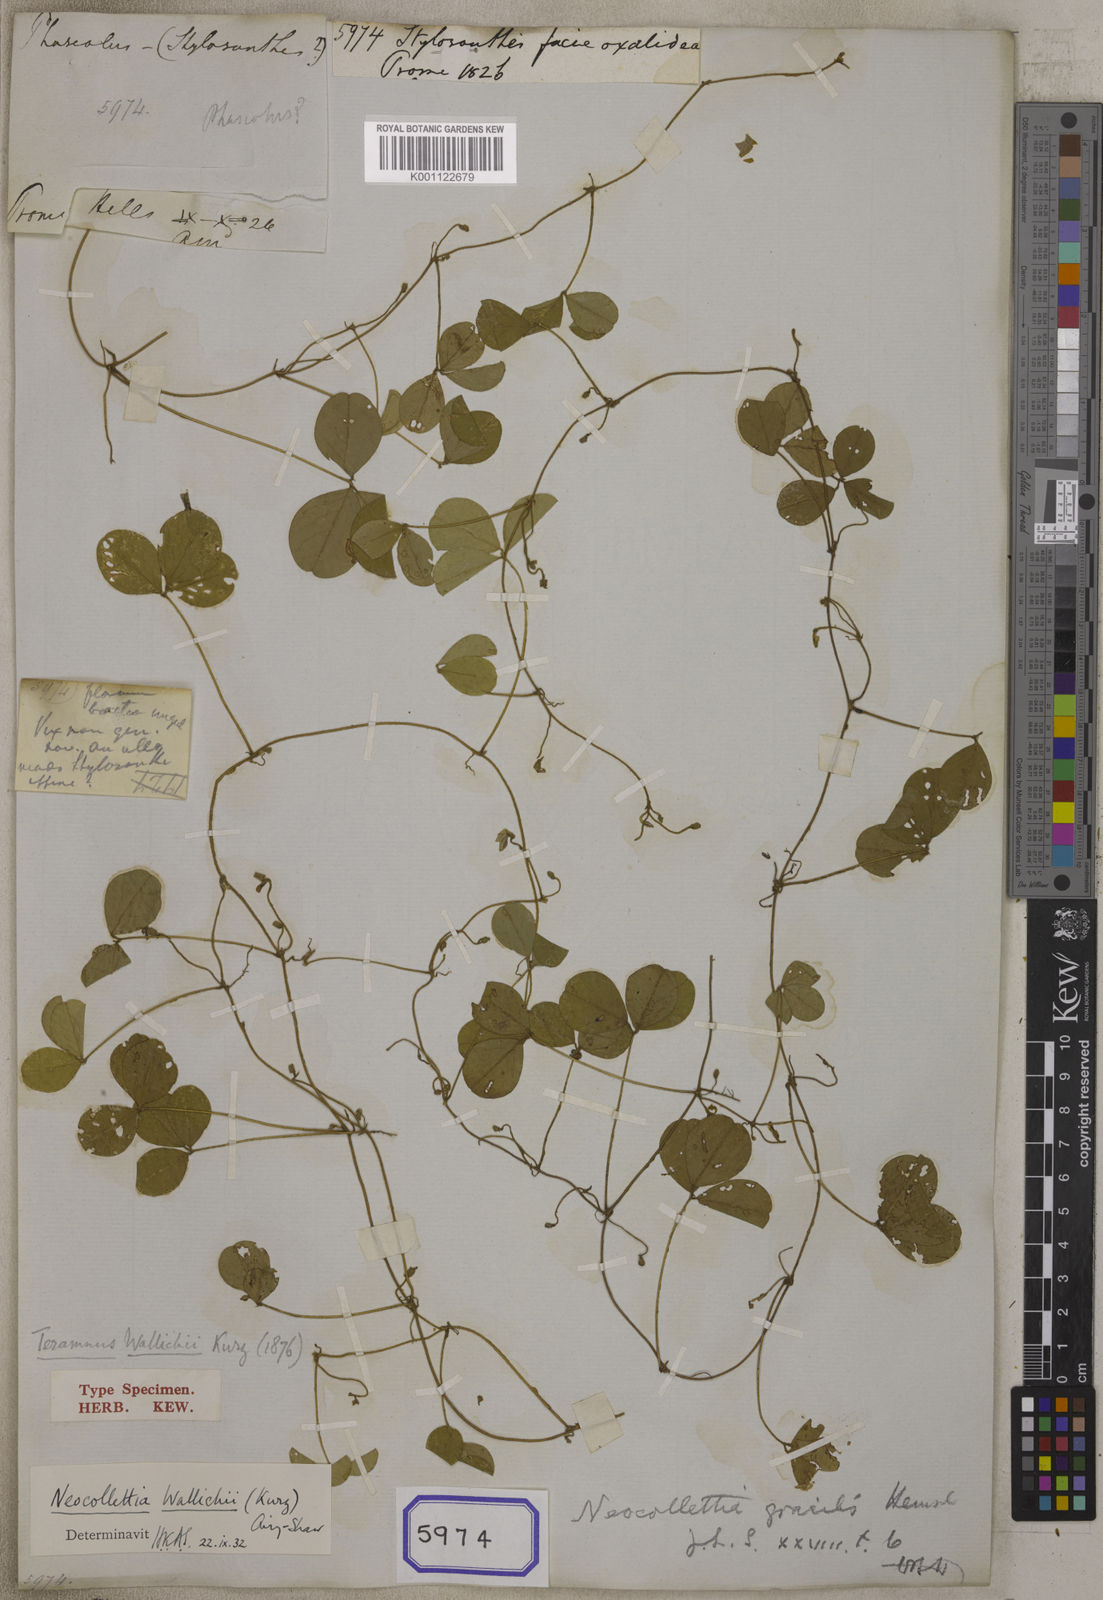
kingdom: Plantae
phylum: Tracheophyta
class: Magnoliopsida
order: Fabales
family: Fabaceae
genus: Stylosanthes
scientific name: Stylosanthes
